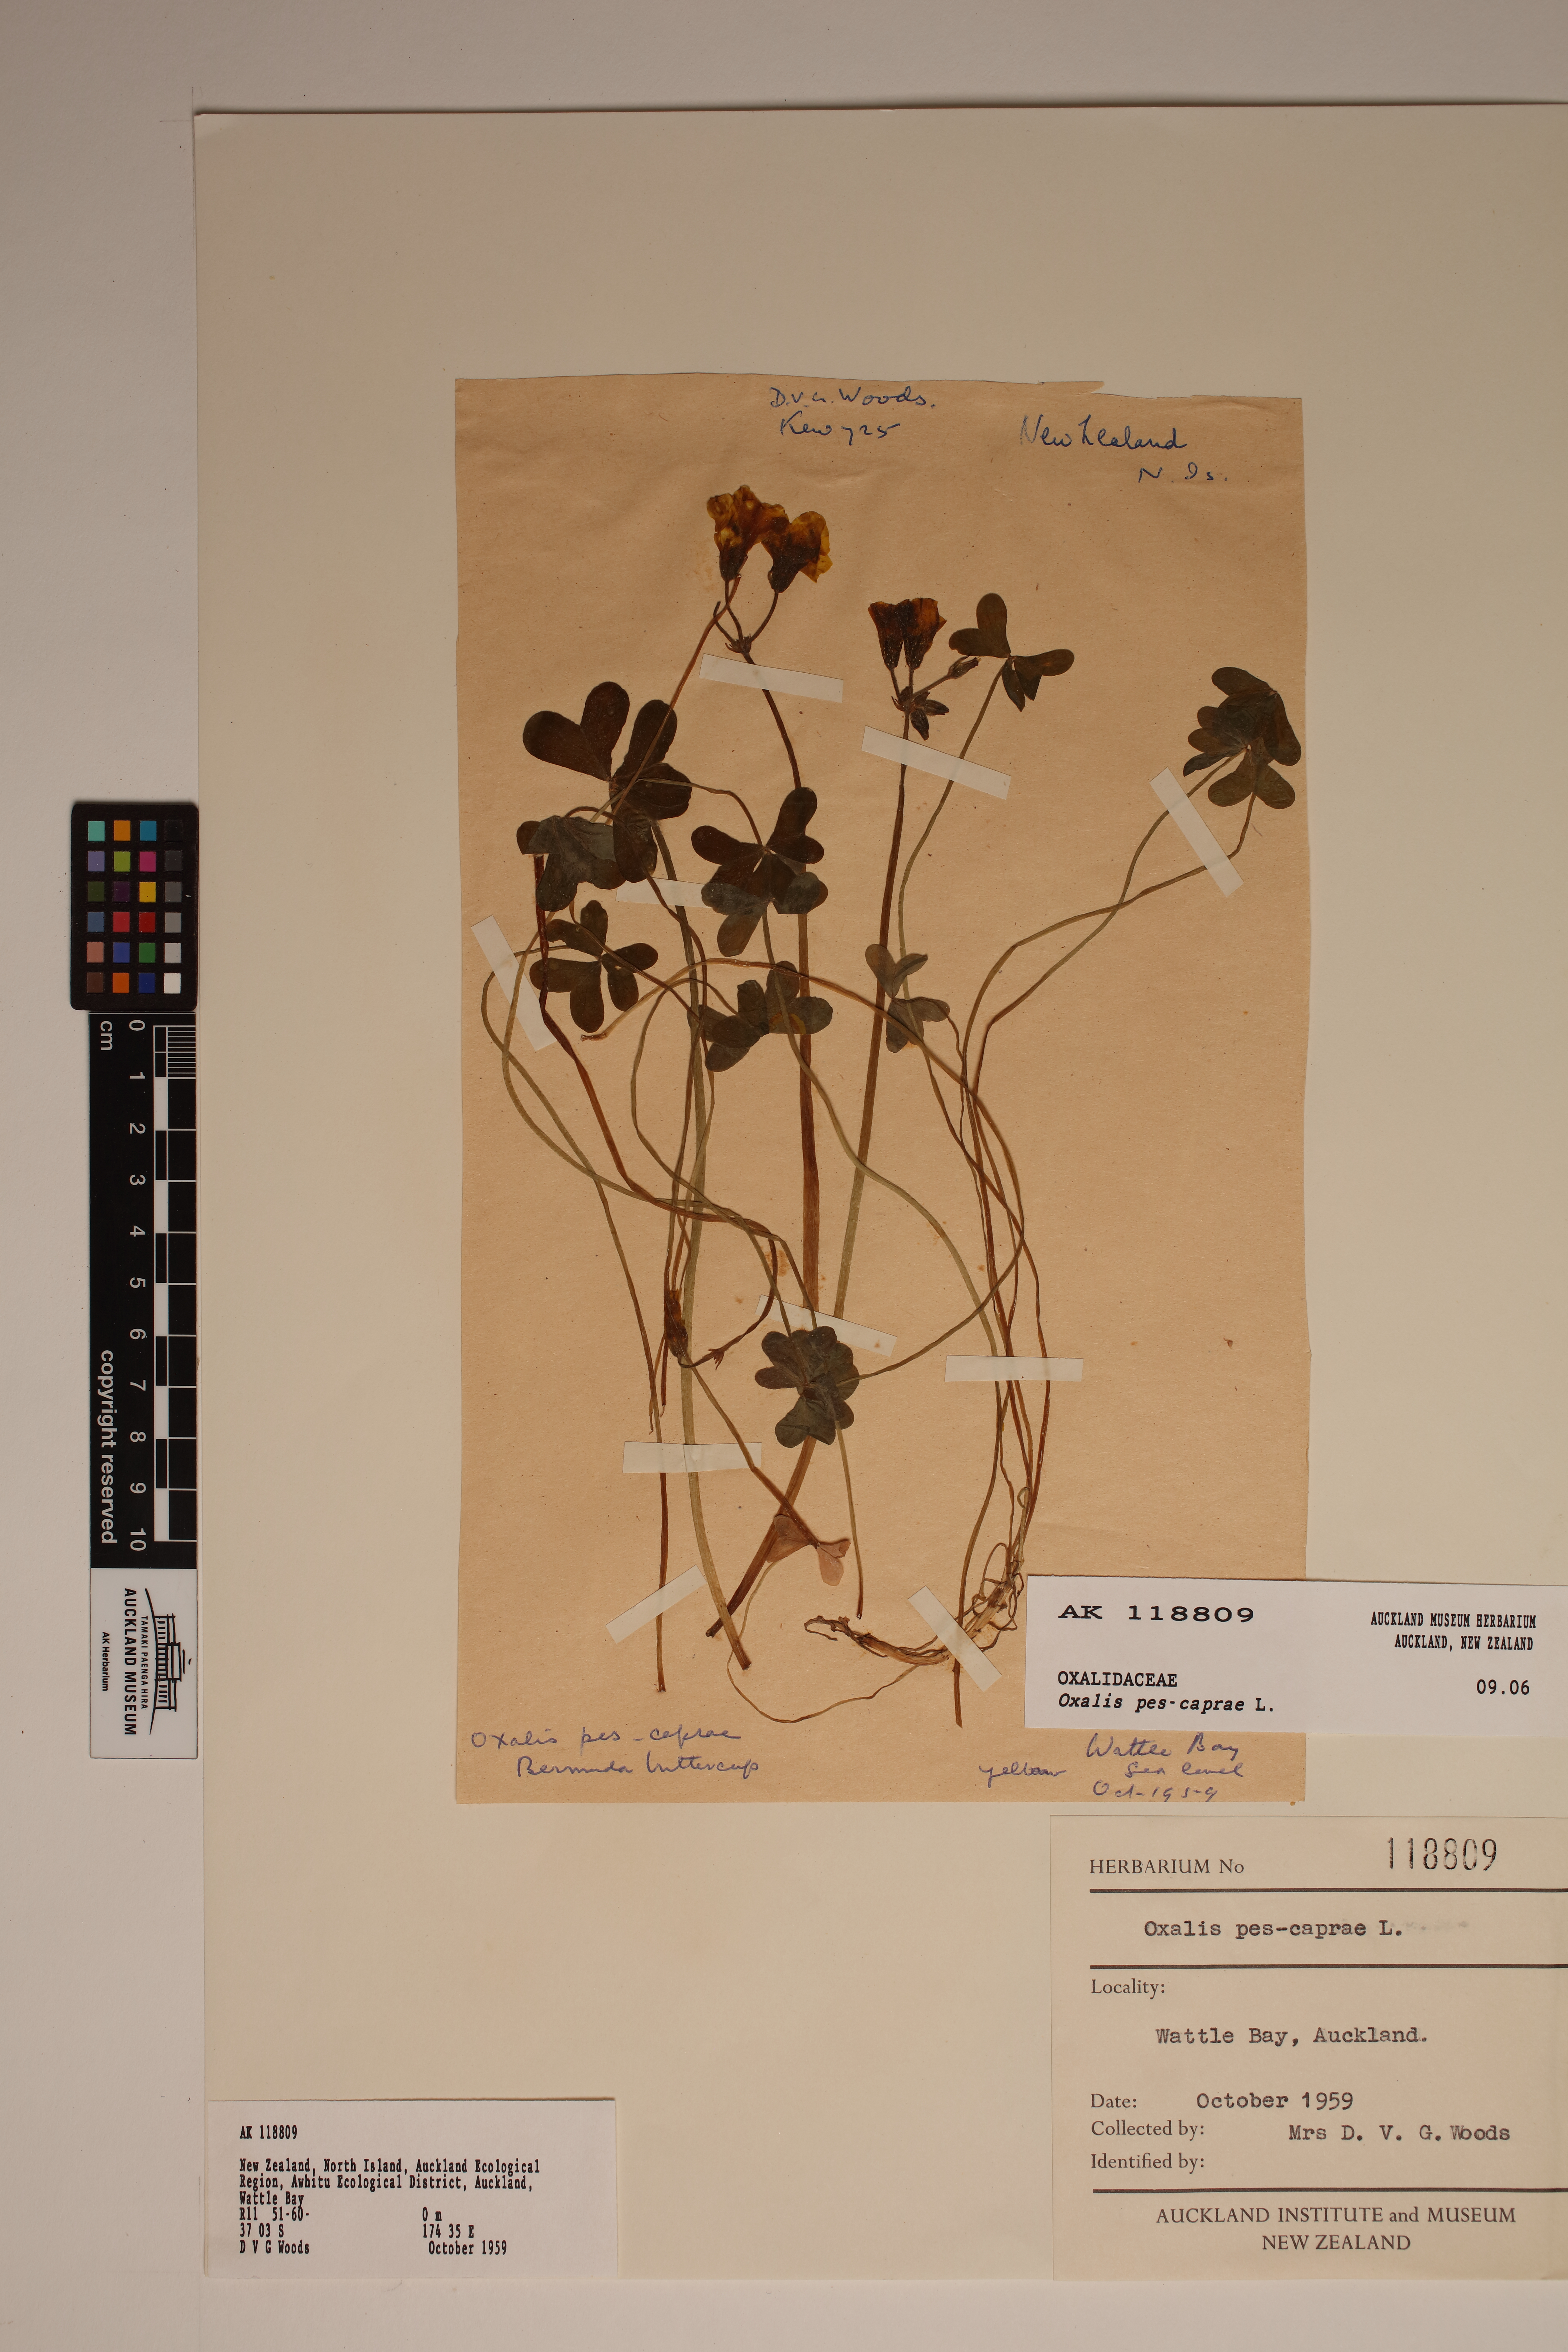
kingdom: Plantae
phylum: Tracheophyta
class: Magnoliopsida
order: Oxalidales
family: Oxalidaceae
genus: Oxalis
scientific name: Oxalis pes-caprae
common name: Bermuda-buttercup
